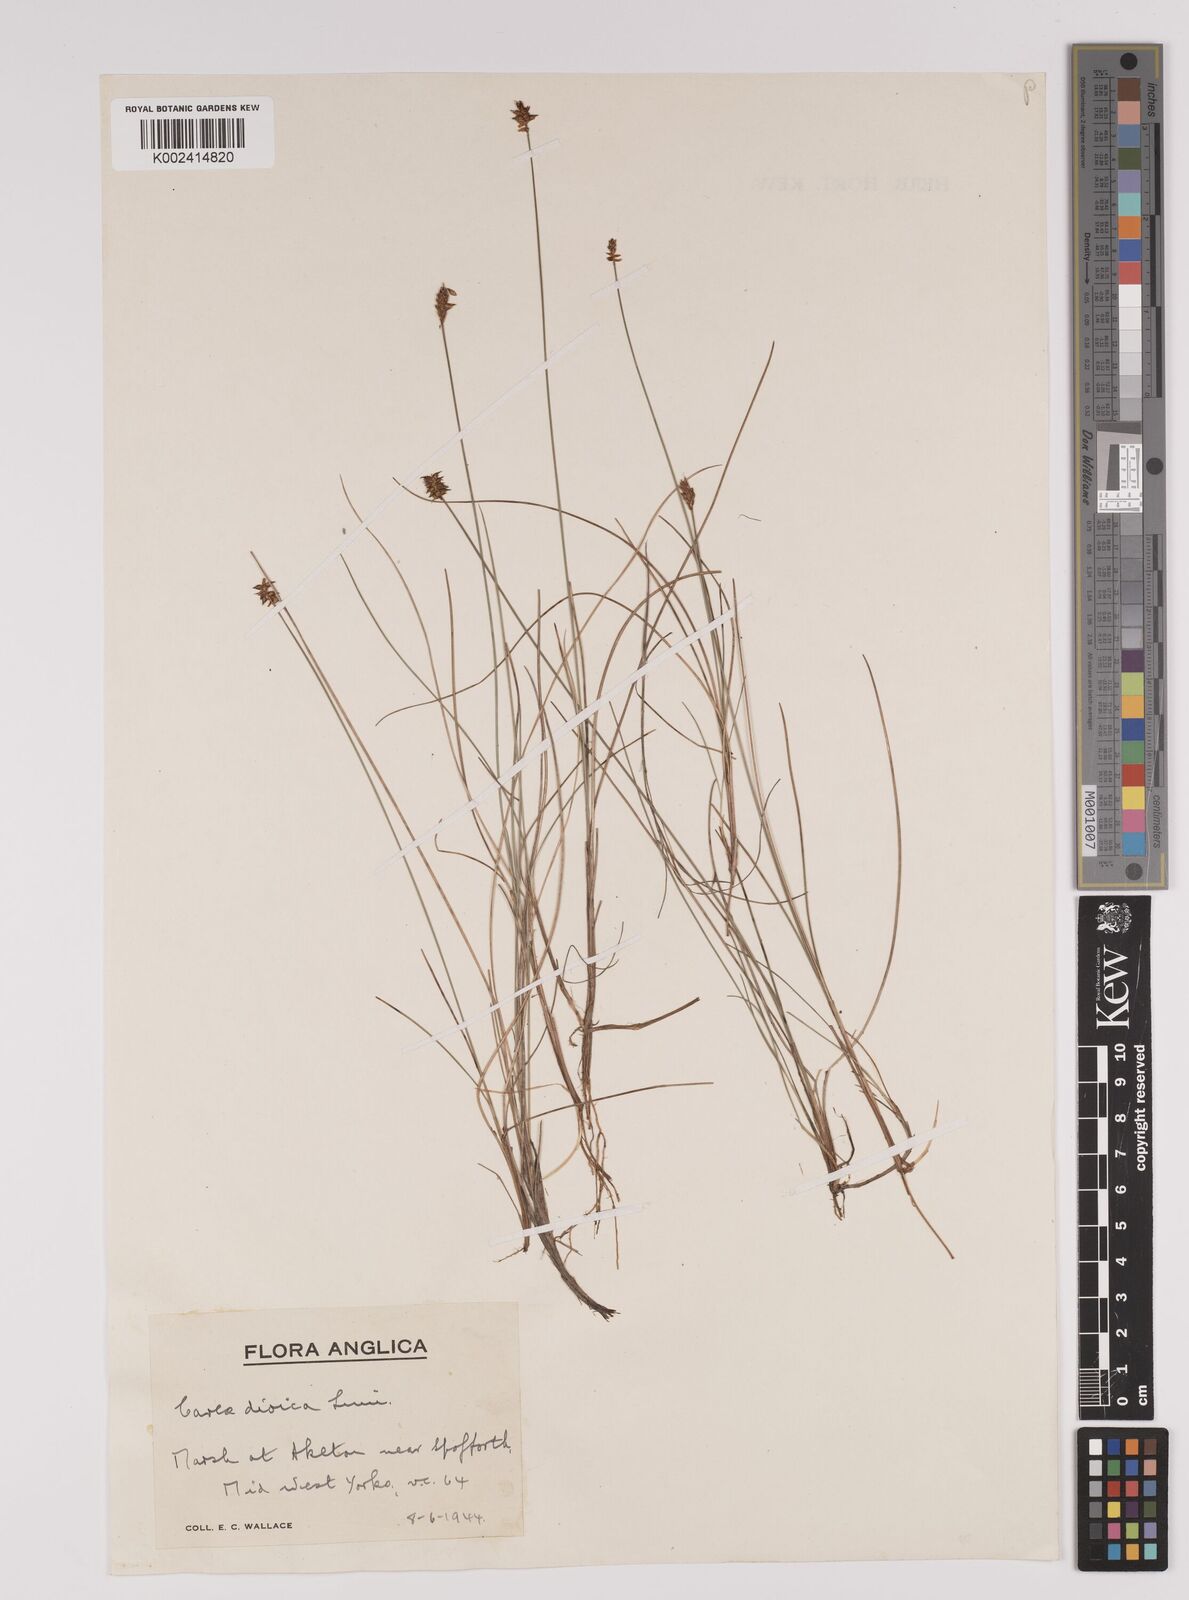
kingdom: Plantae
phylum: Tracheophyta
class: Liliopsida
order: Poales
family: Cyperaceae
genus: Carex
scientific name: Carex dioica
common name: Dioecious sedge
